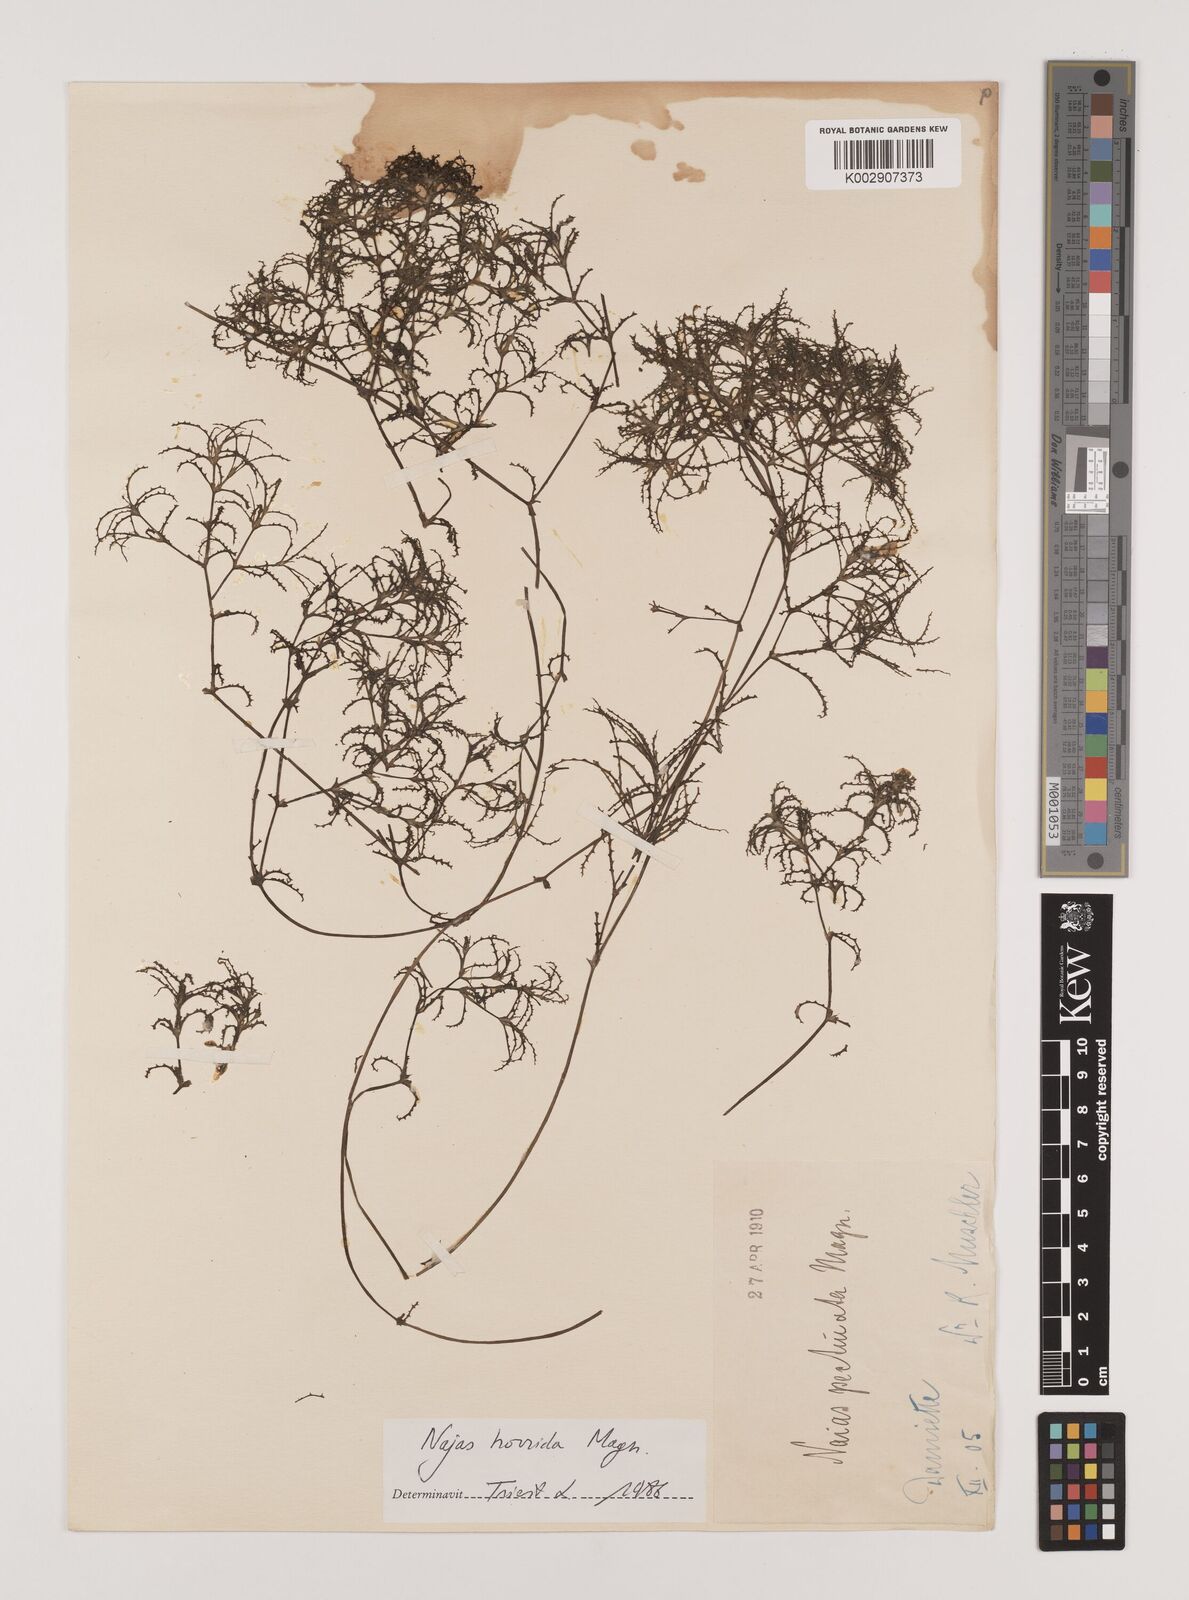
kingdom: Plantae
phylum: Tracheophyta
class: Liliopsida
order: Alismatales
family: Hydrocharitaceae
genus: Najas
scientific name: Najas horrida
